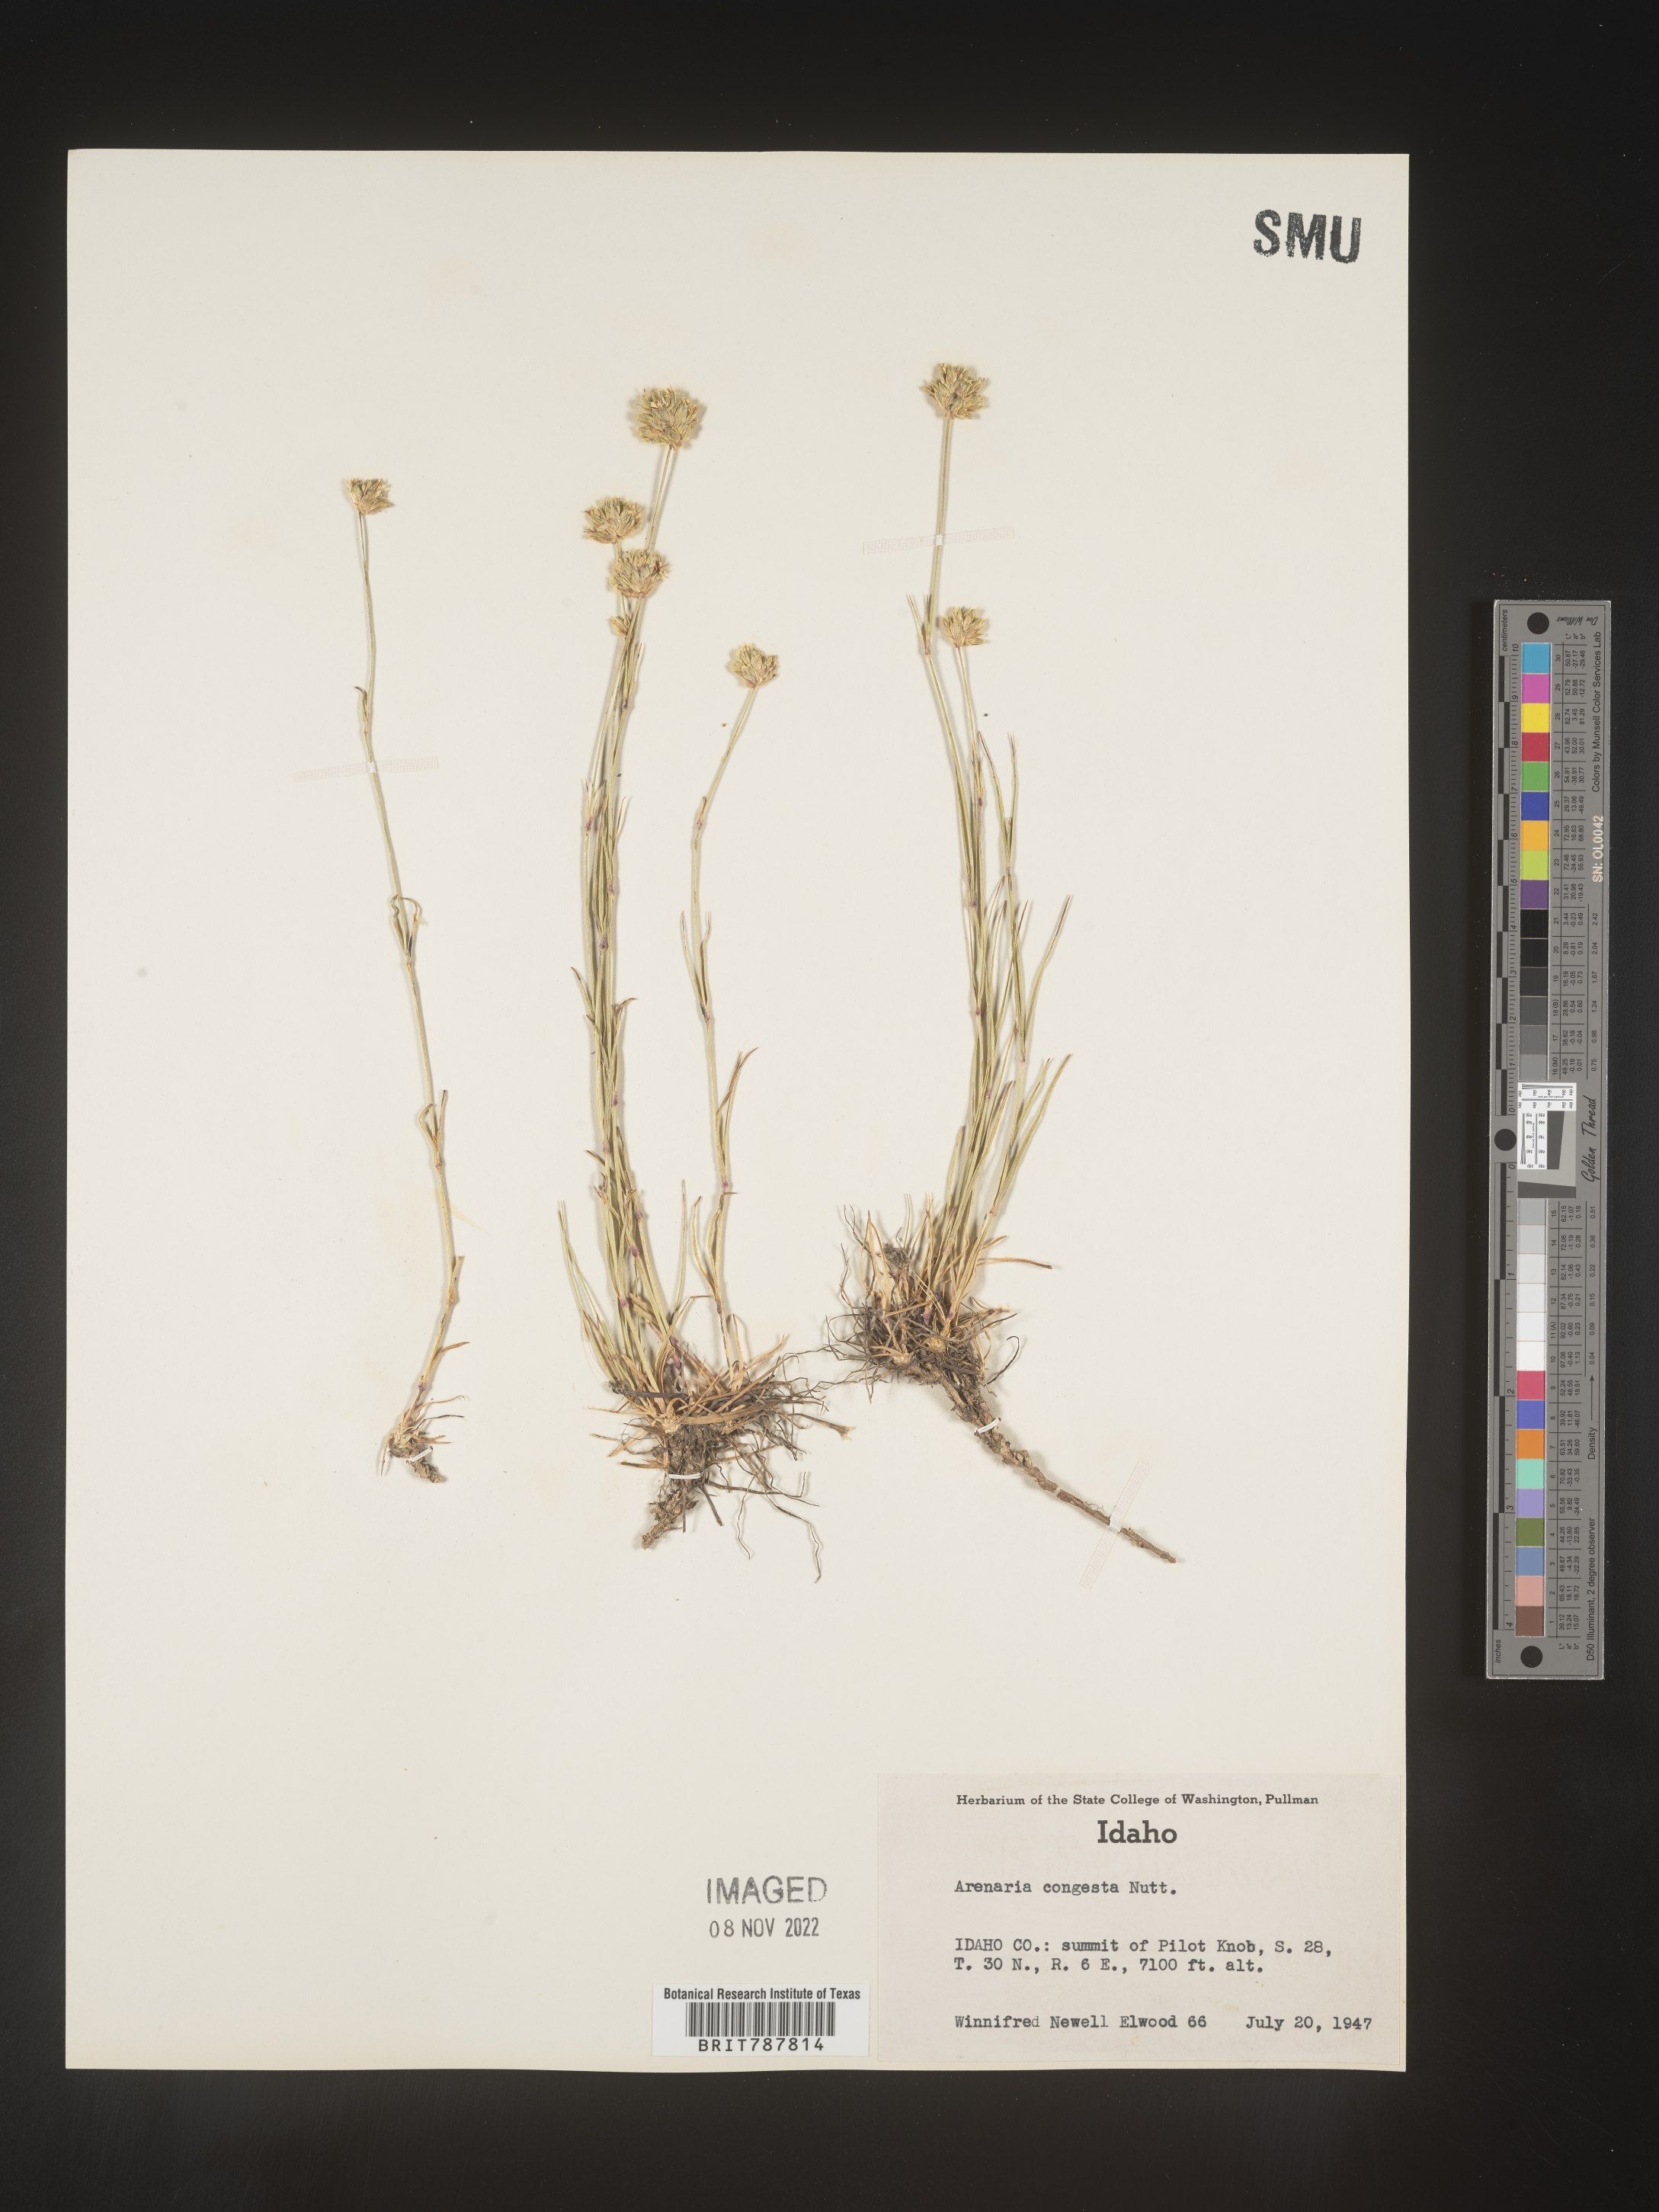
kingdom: Plantae
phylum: Tracheophyta
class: Magnoliopsida
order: Caryophyllales
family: Caryophyllaceae
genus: Eremogone
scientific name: Eremogone congesta
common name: Ballhead sandwort
